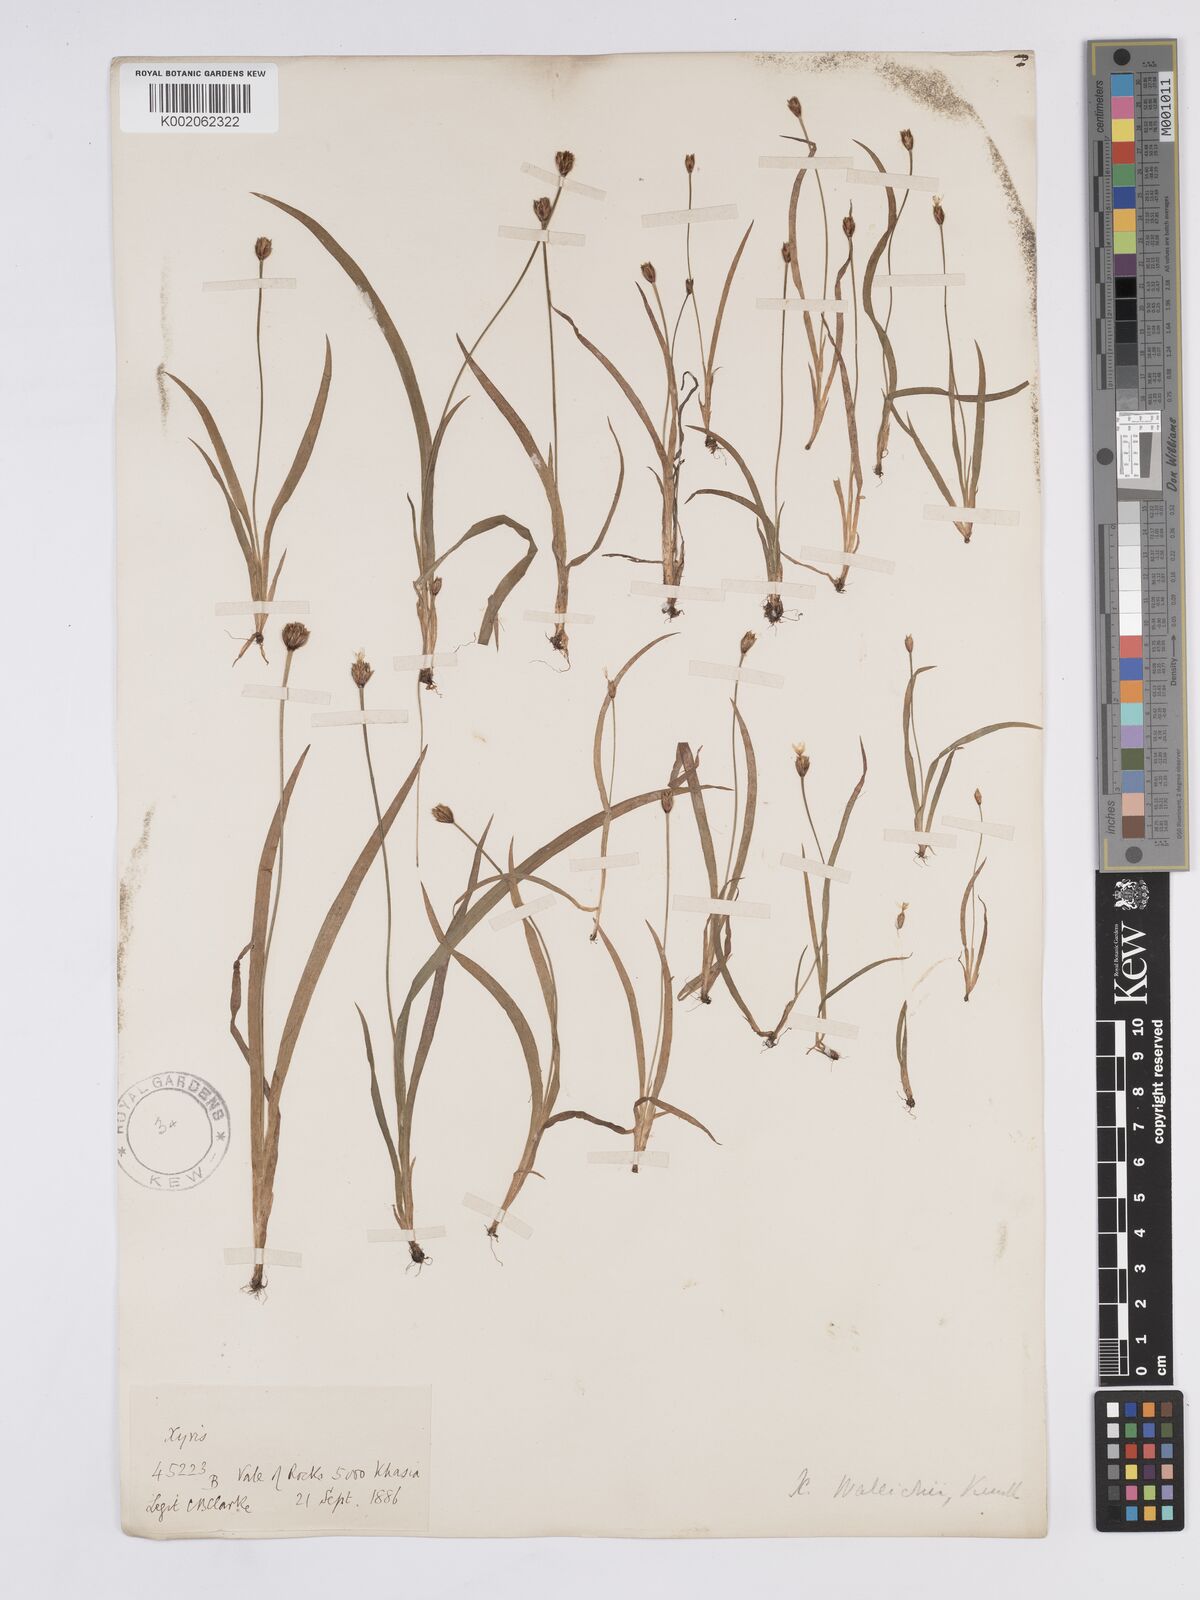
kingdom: Plantae
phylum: Tracheophyta
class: Liliopsida
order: Poales
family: Xyridaceae
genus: Xyris
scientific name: Xyris wallichii
